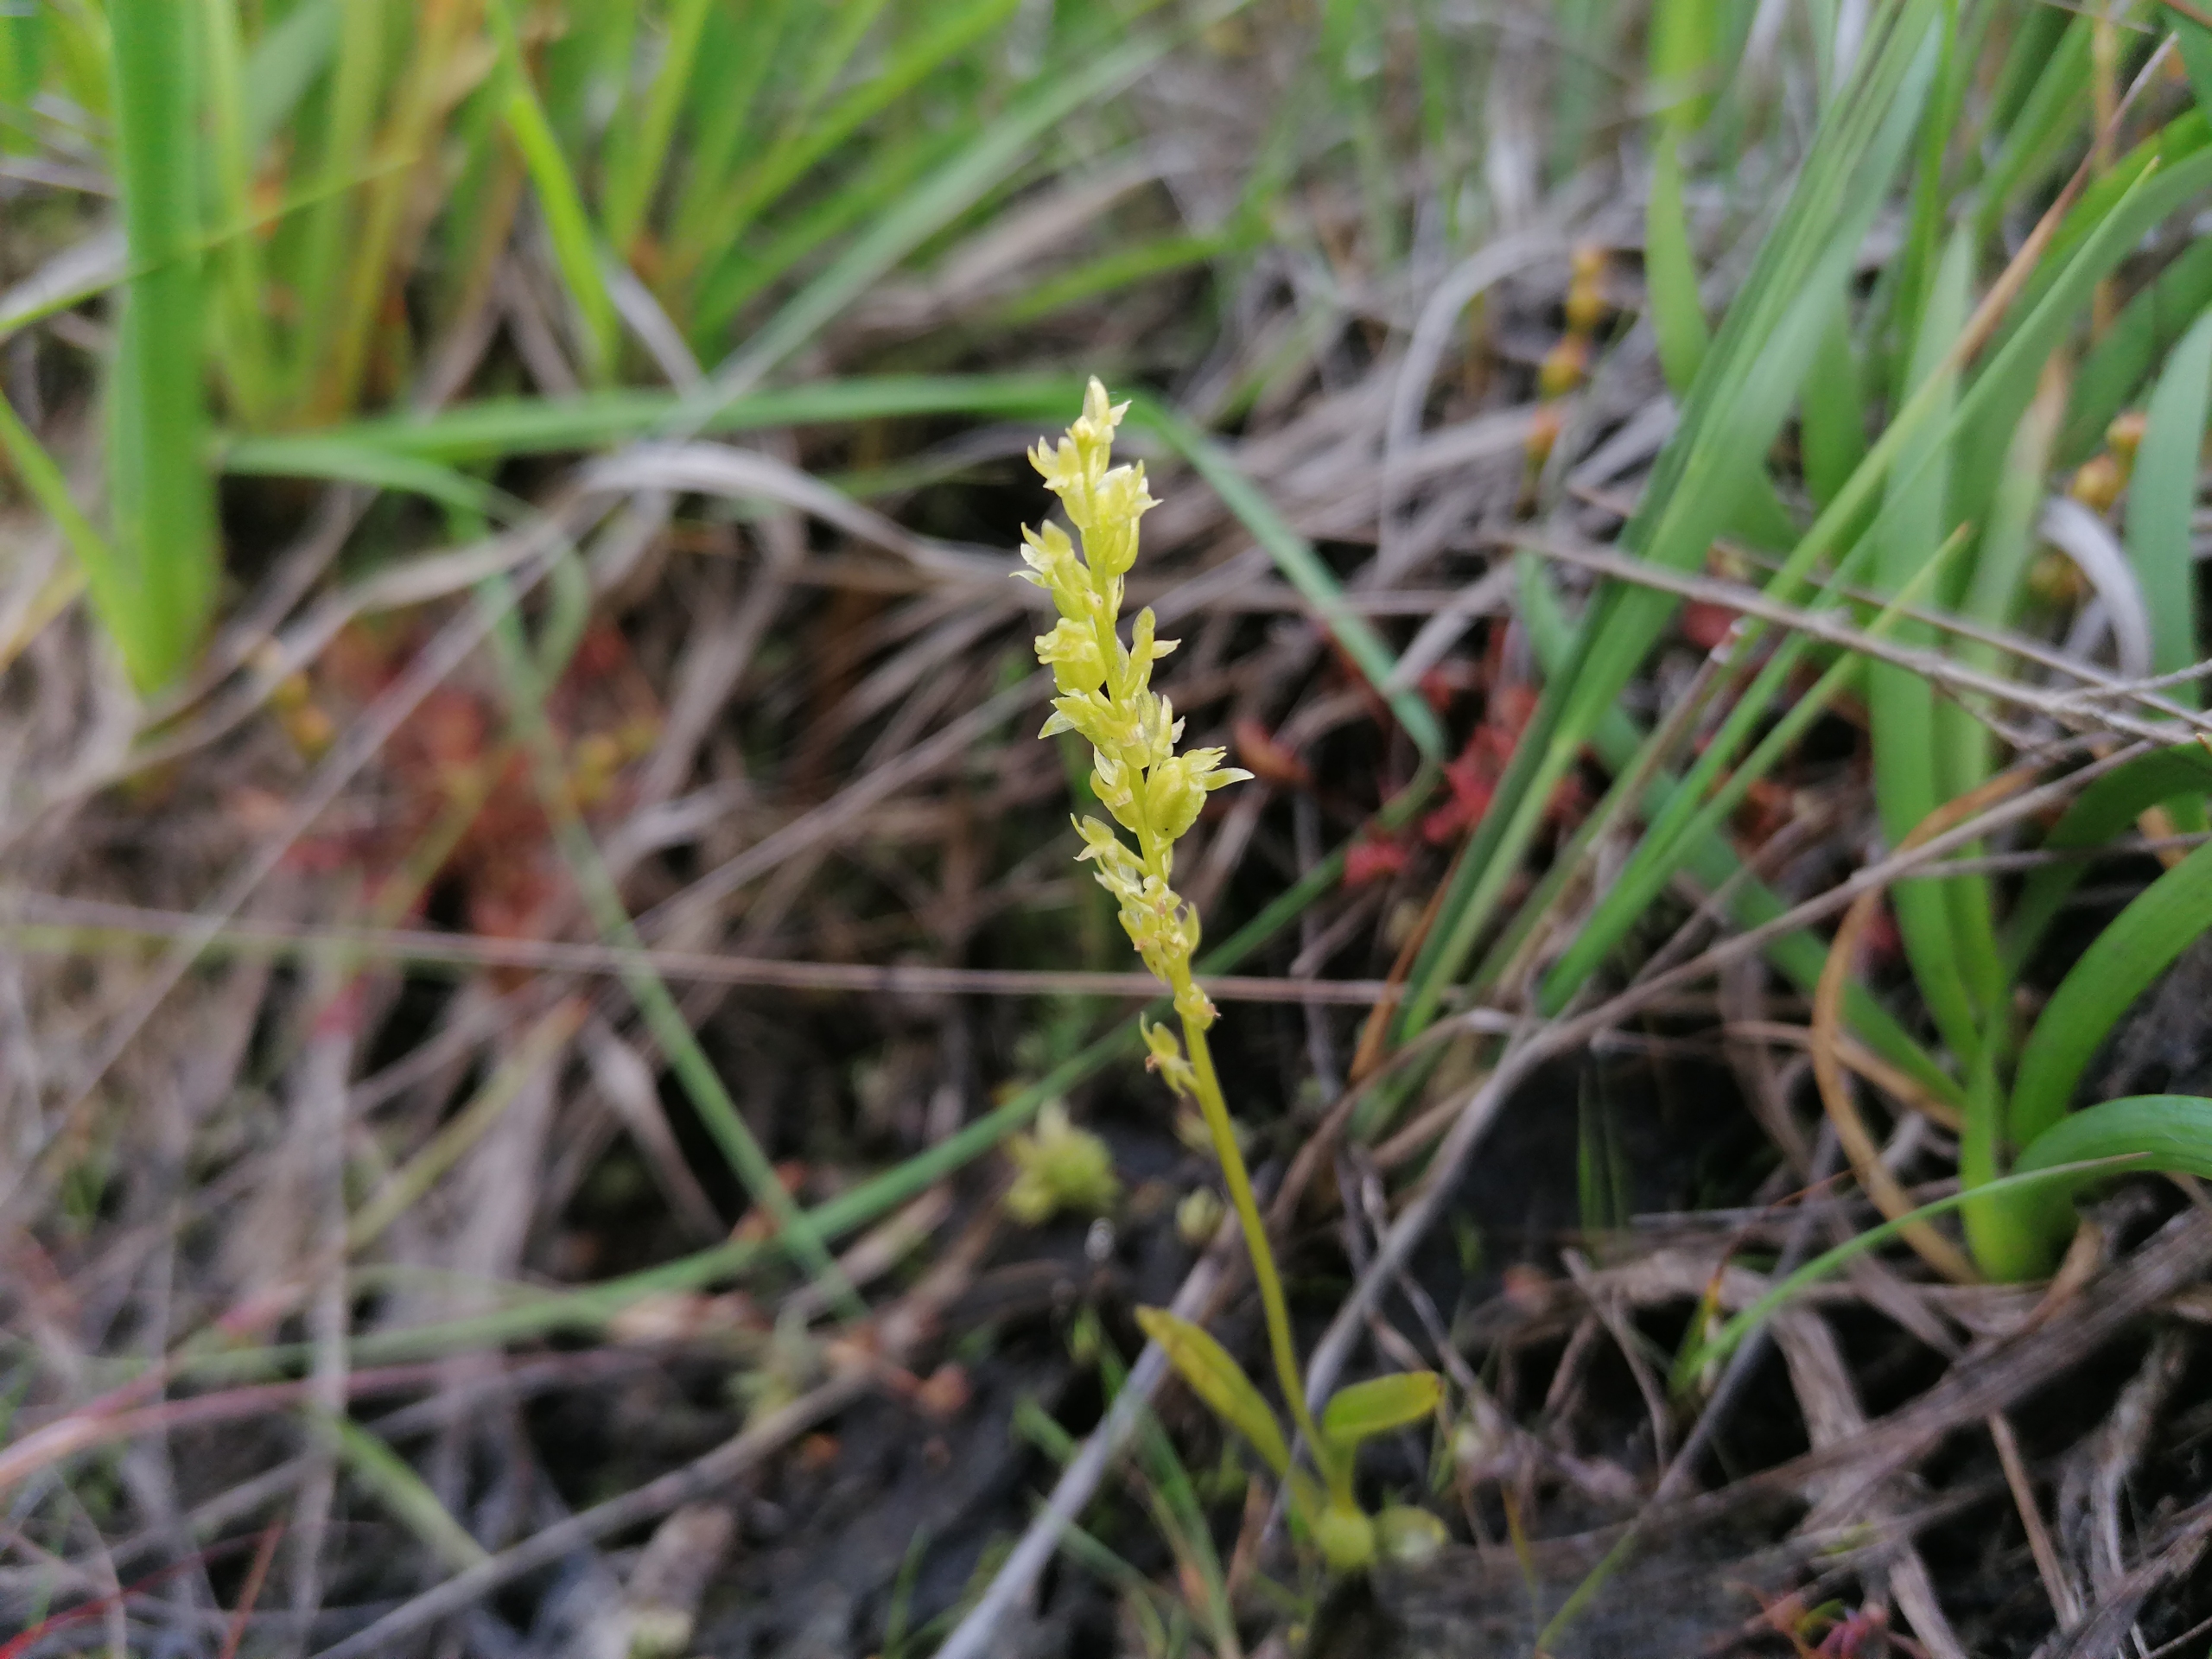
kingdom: Plantae
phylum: Tracheophyta
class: Liliopsida
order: Asparagales
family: Orchidaceae
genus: Hammarbya
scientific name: Hammarbya paludosa
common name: Hjertelæbe
